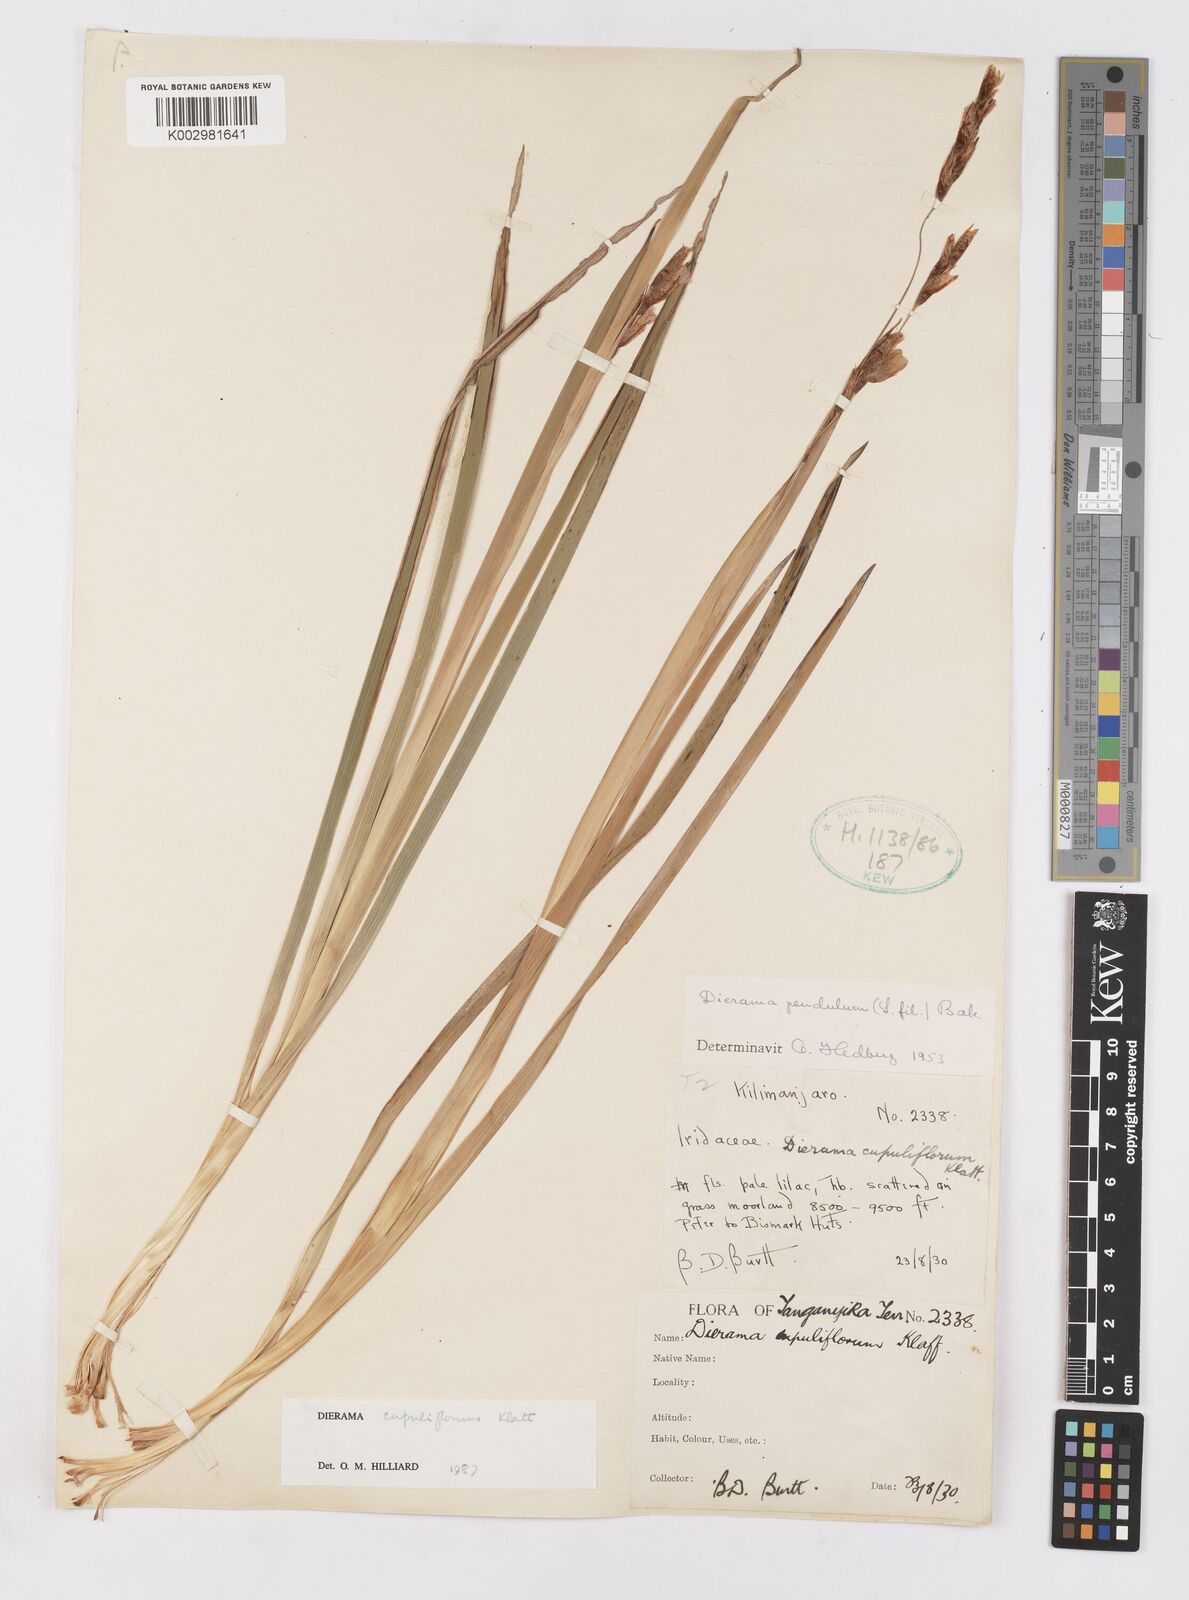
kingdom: Plantae
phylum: Tracheophyta
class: Liliopsida
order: Asparagales
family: Iridaceae
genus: Dierama
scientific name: Dierama cupuliflorum
